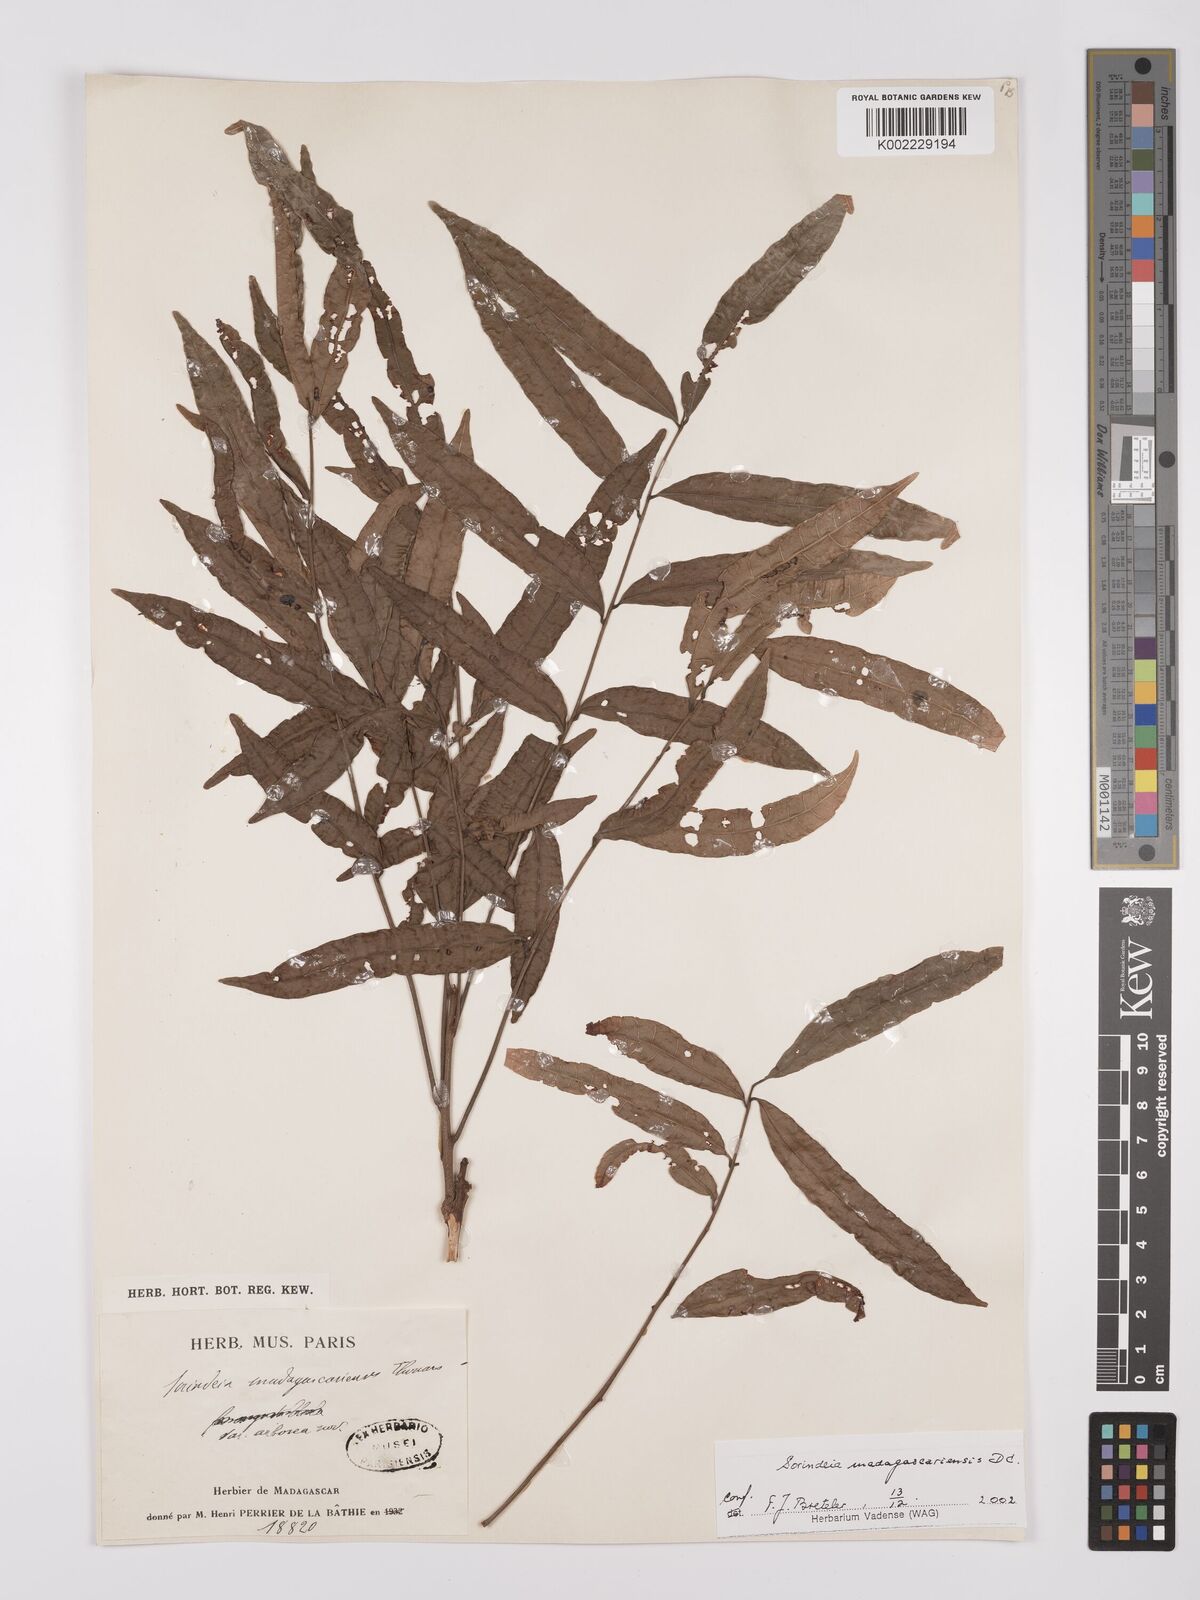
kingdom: Plantae
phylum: Tracheophyta
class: Magnoliopsida
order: Sapindales
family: Anacardiaceae
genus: Sorindeia
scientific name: Sorindeia madagascariensis
